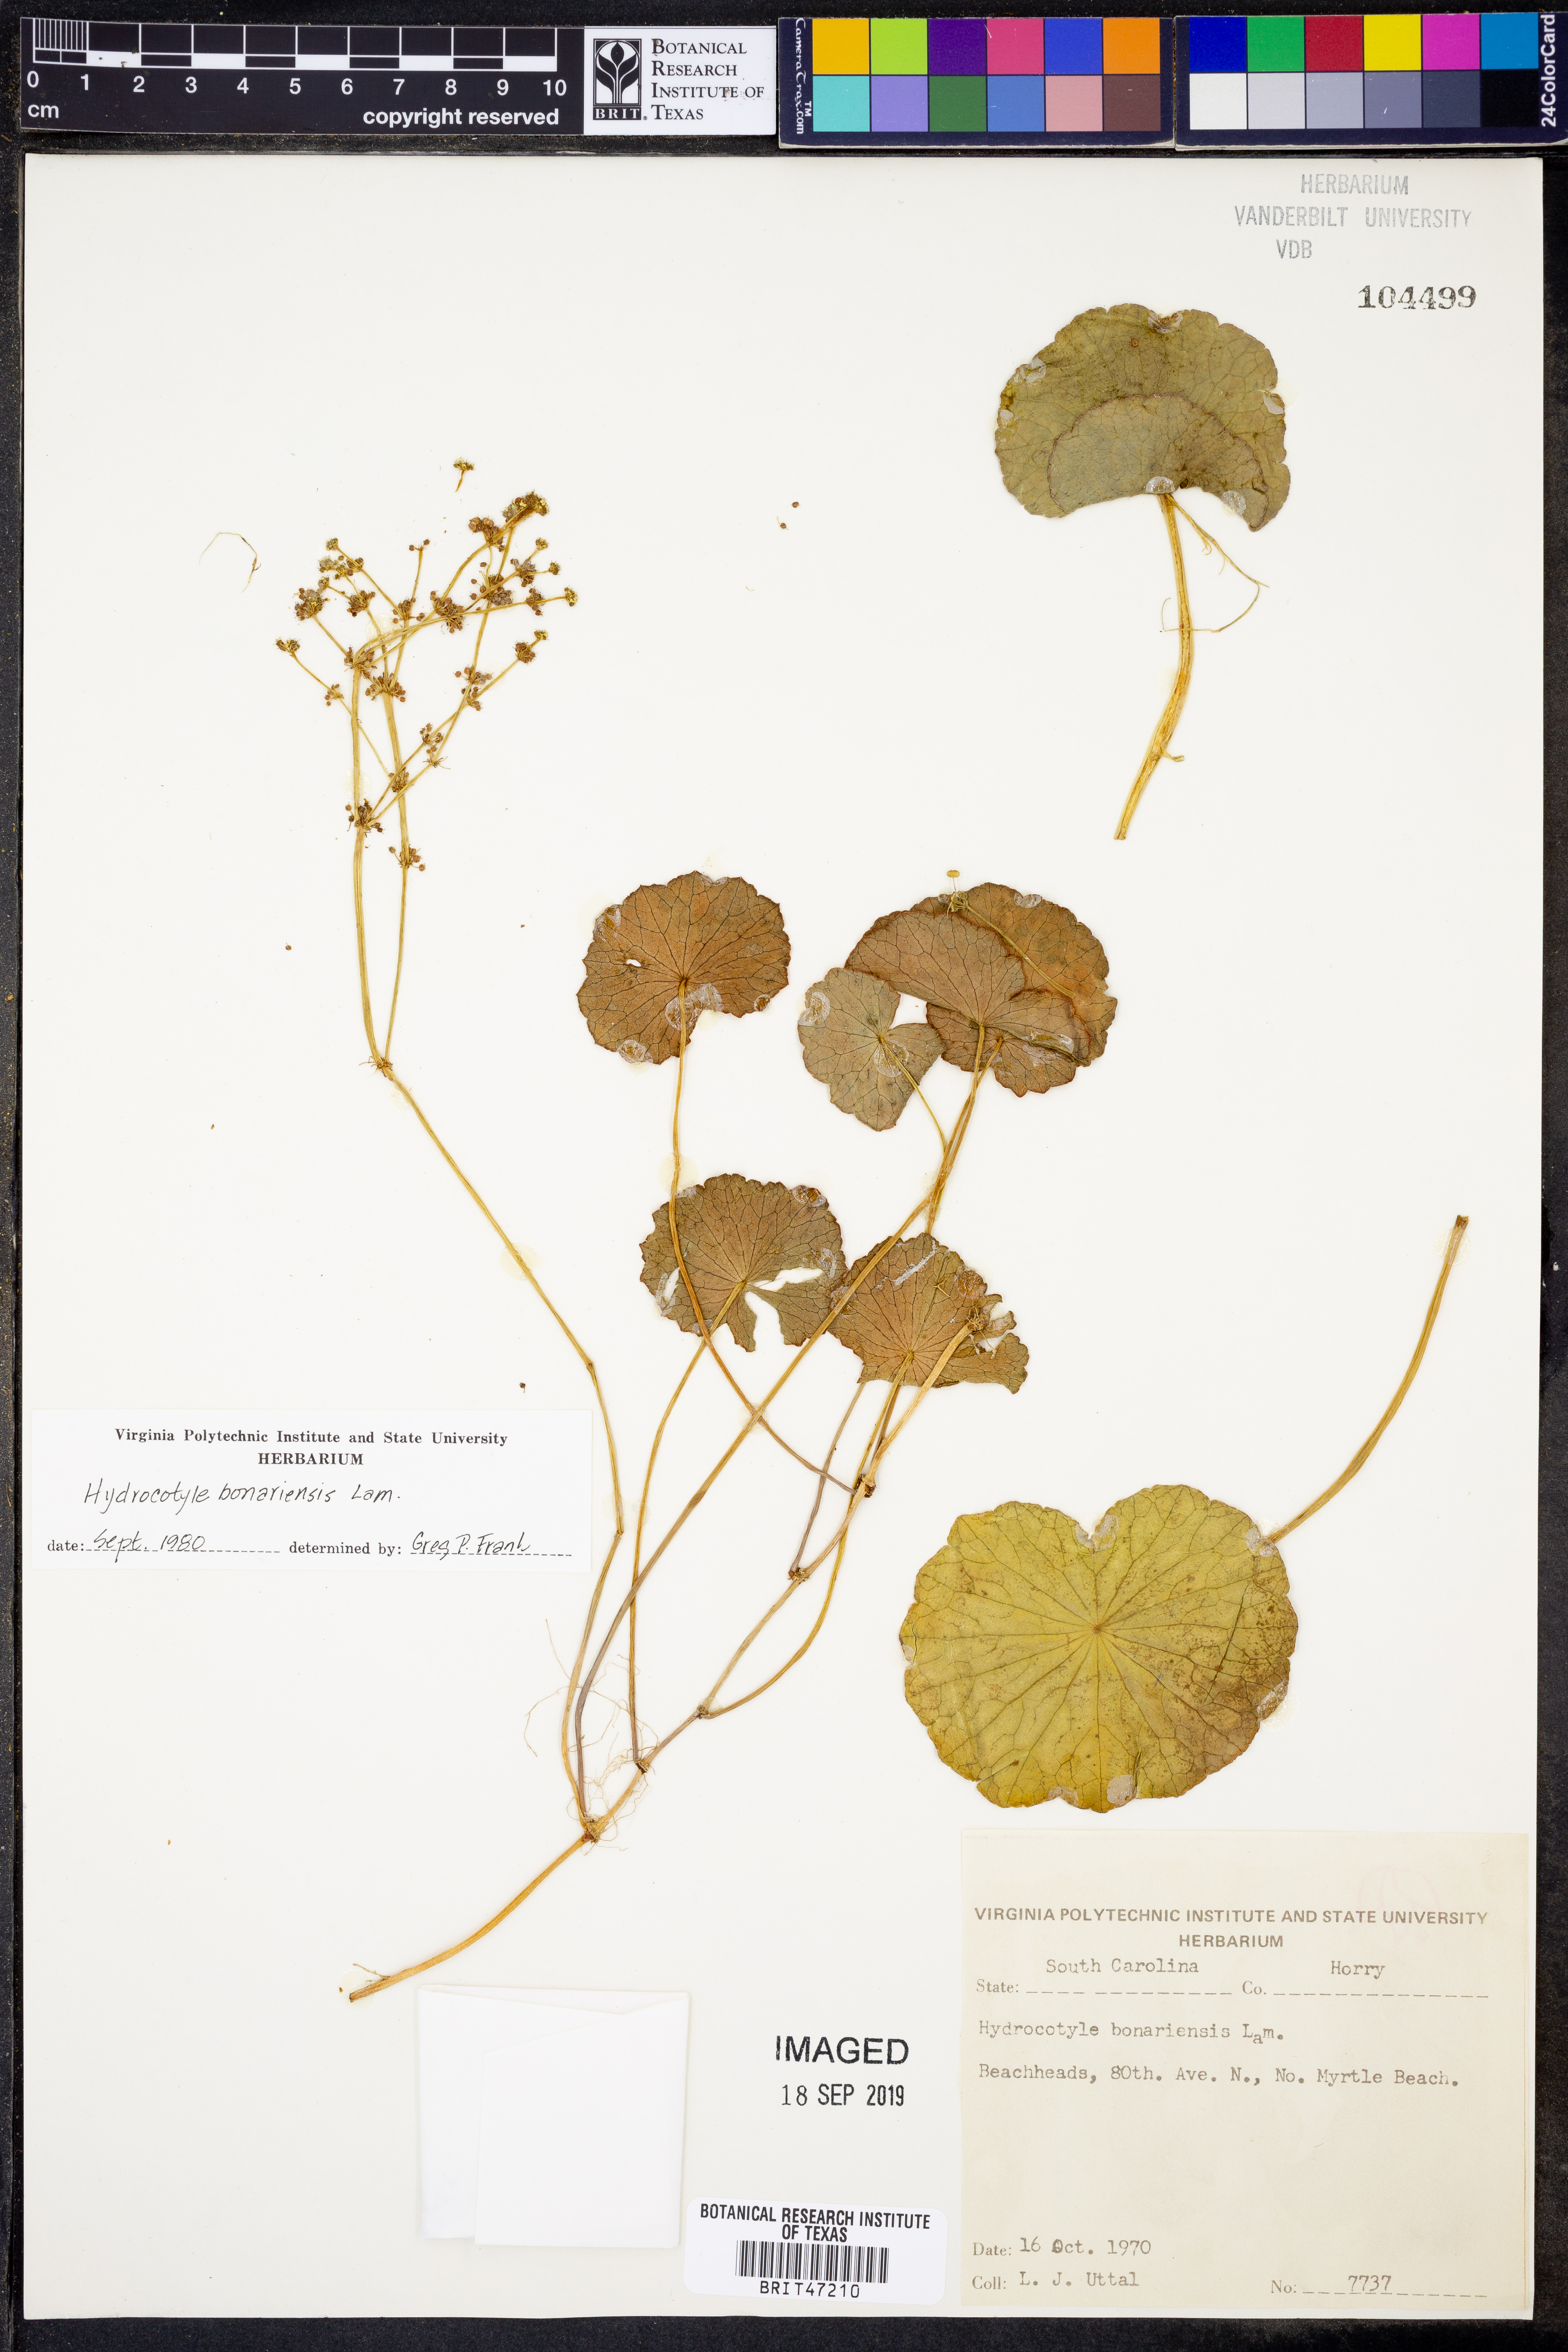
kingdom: Plantae
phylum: Tracheophyta
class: Magnoliopsida
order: Apiales
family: Araliaceae
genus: Hydrocotyle
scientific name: Hydrocotyle bonariensis
